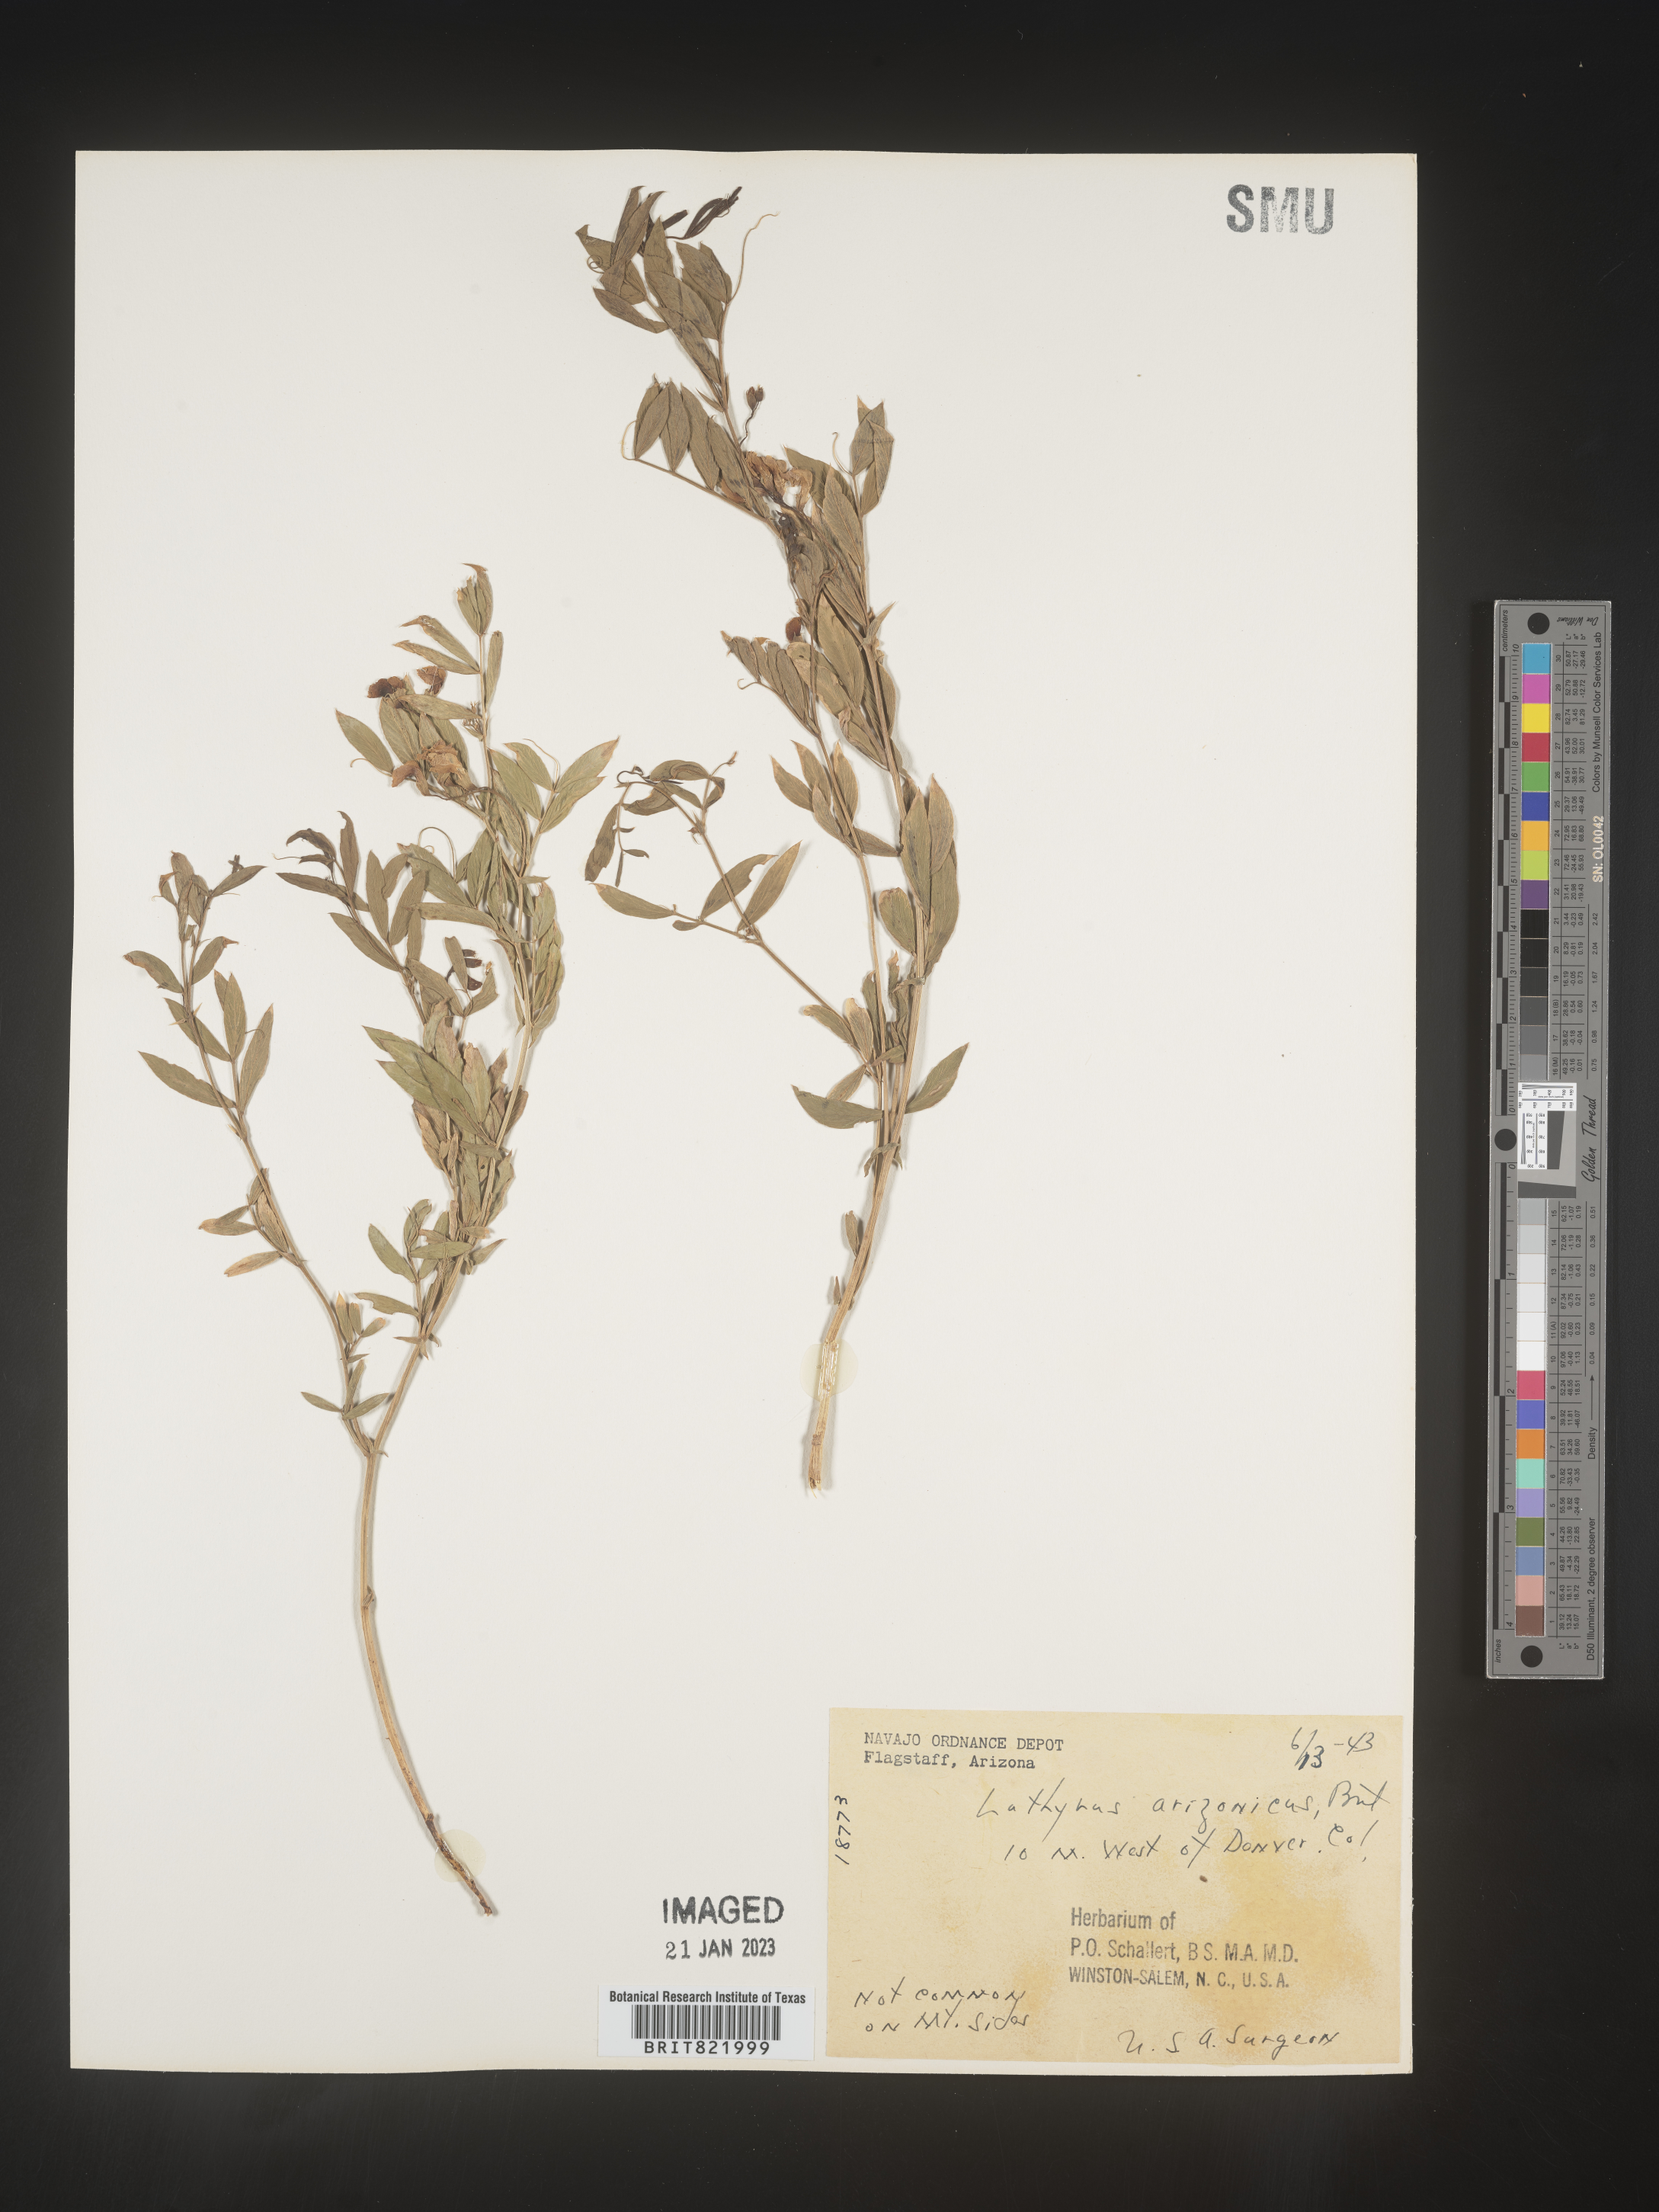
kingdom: Plantae
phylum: Tracheophyta
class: Magnoliopsida
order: Fabales
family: Fabaceae
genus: Lathyrus
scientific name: Lathyrus
